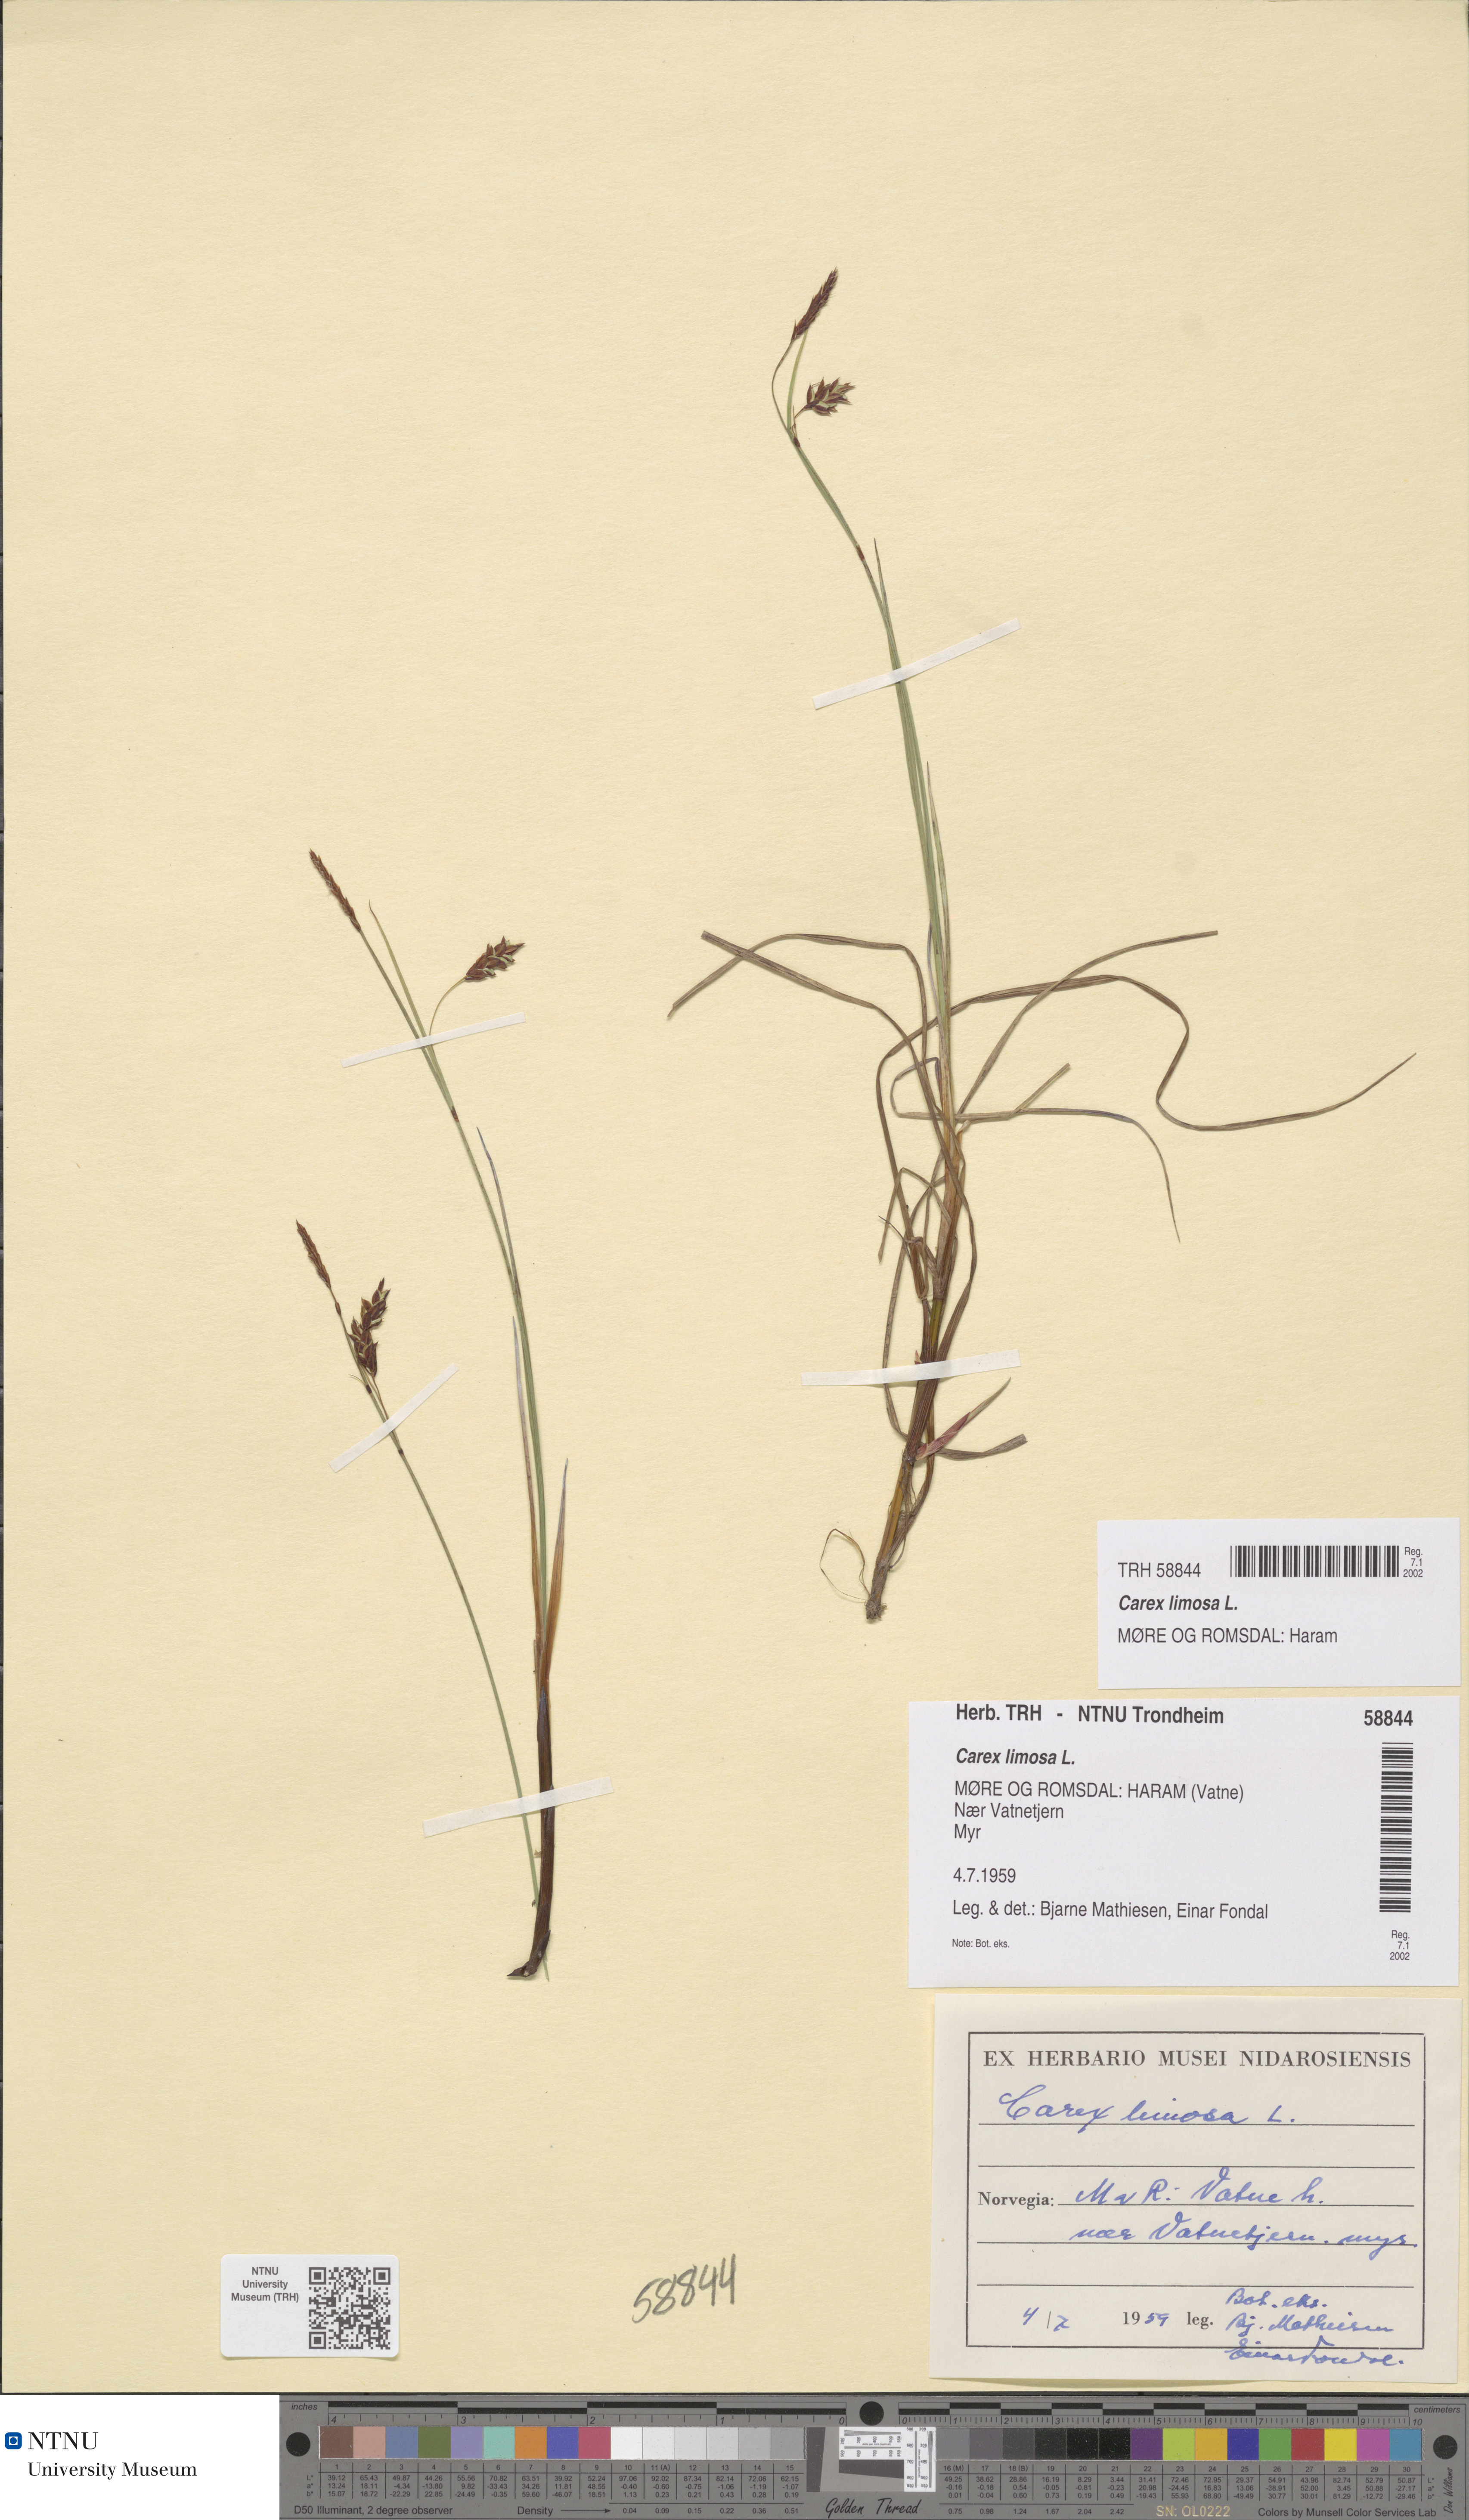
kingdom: Plantae
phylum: Tracheophyta
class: Liliopsida
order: Poales
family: Cyperaceae
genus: Carex
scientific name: Carex limosa
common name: Bog sedge
